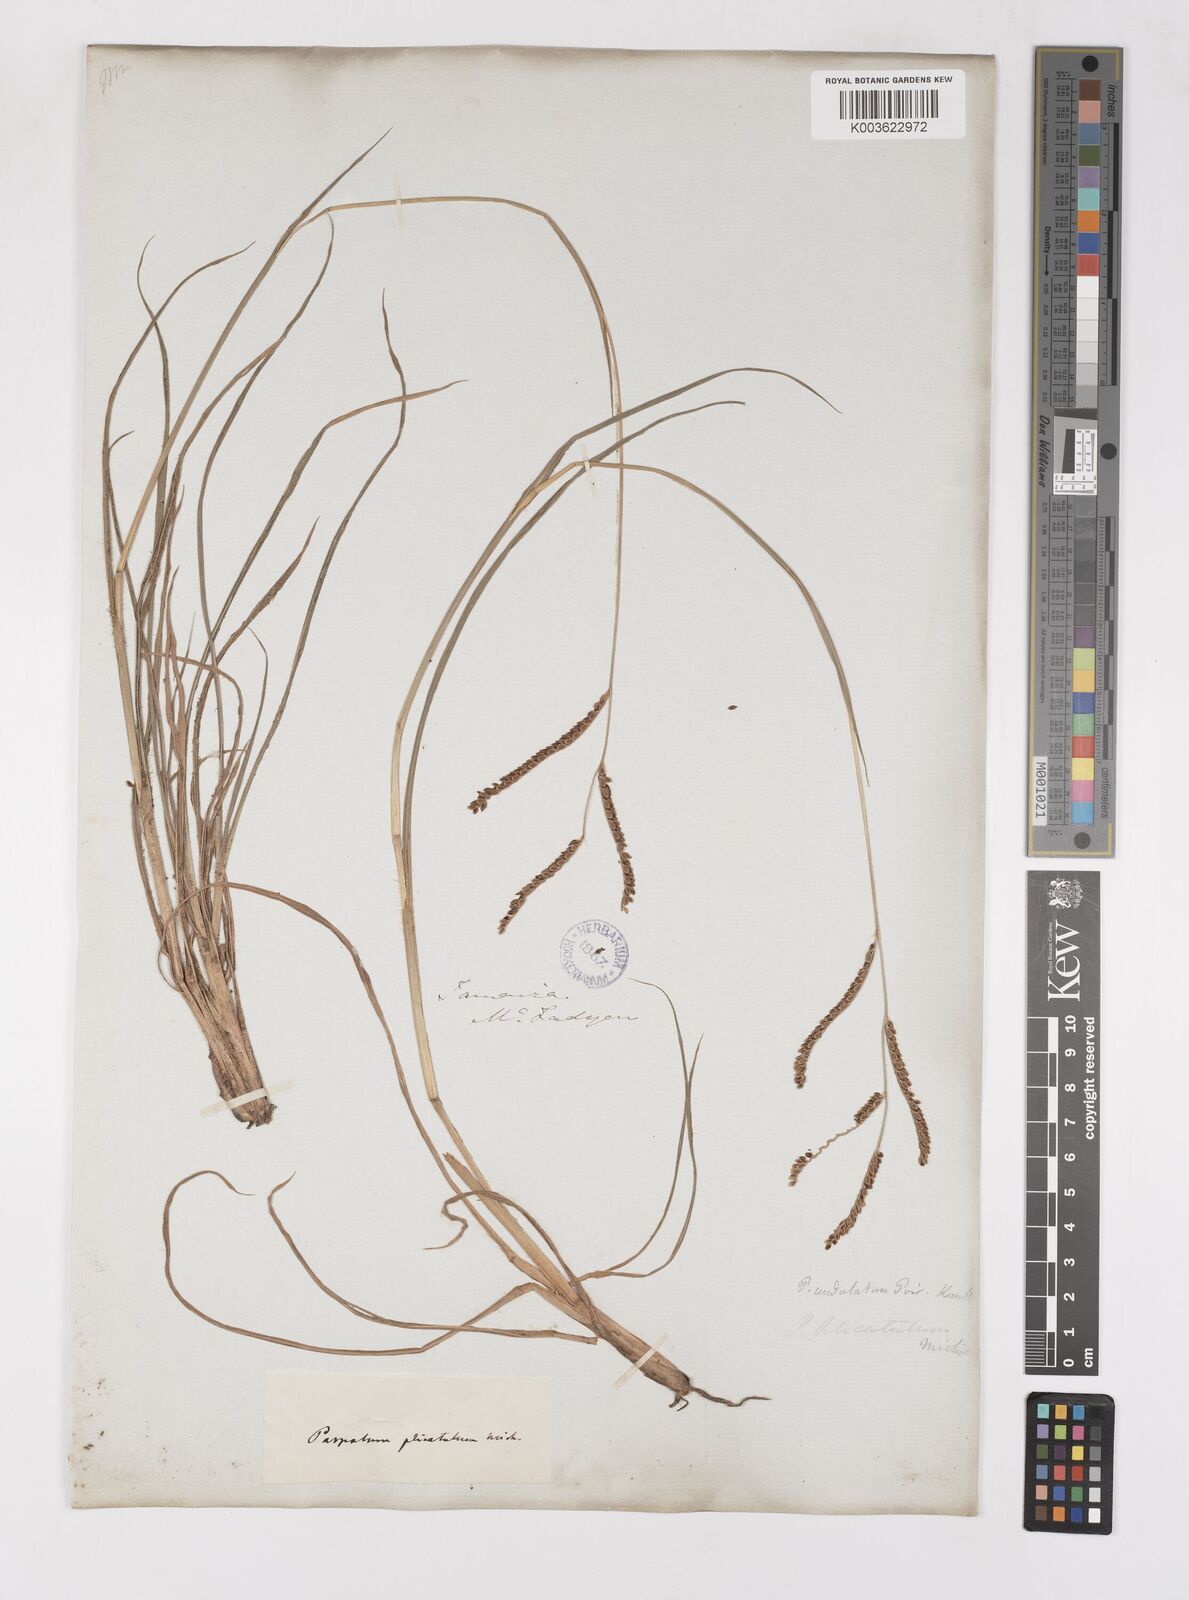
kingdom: Plantae
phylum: Tracheophyta
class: Liliopsida
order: Poales
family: Poaceae
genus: Paspalum
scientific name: Paspalum
